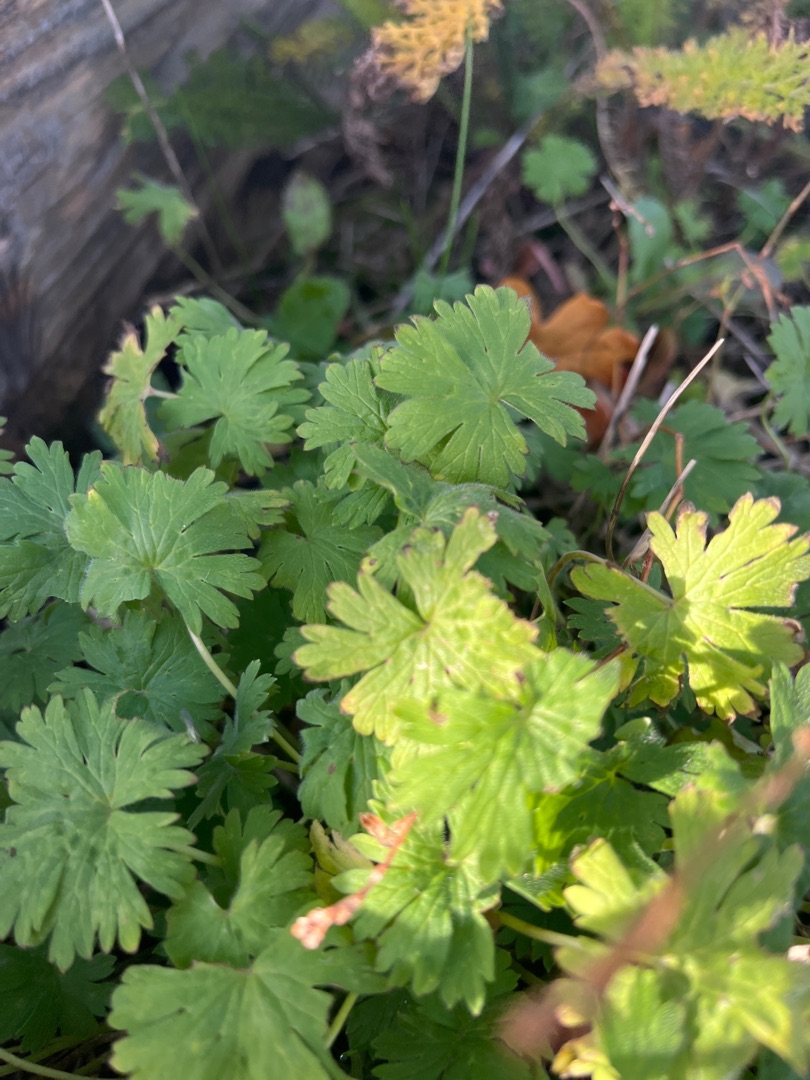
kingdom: Plantae
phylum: Tracheophyta
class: Magnoliopsida
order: Geraniales
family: Geraniaceae
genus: Geranium
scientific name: Geranium pusillum
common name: Liden storkenæb
